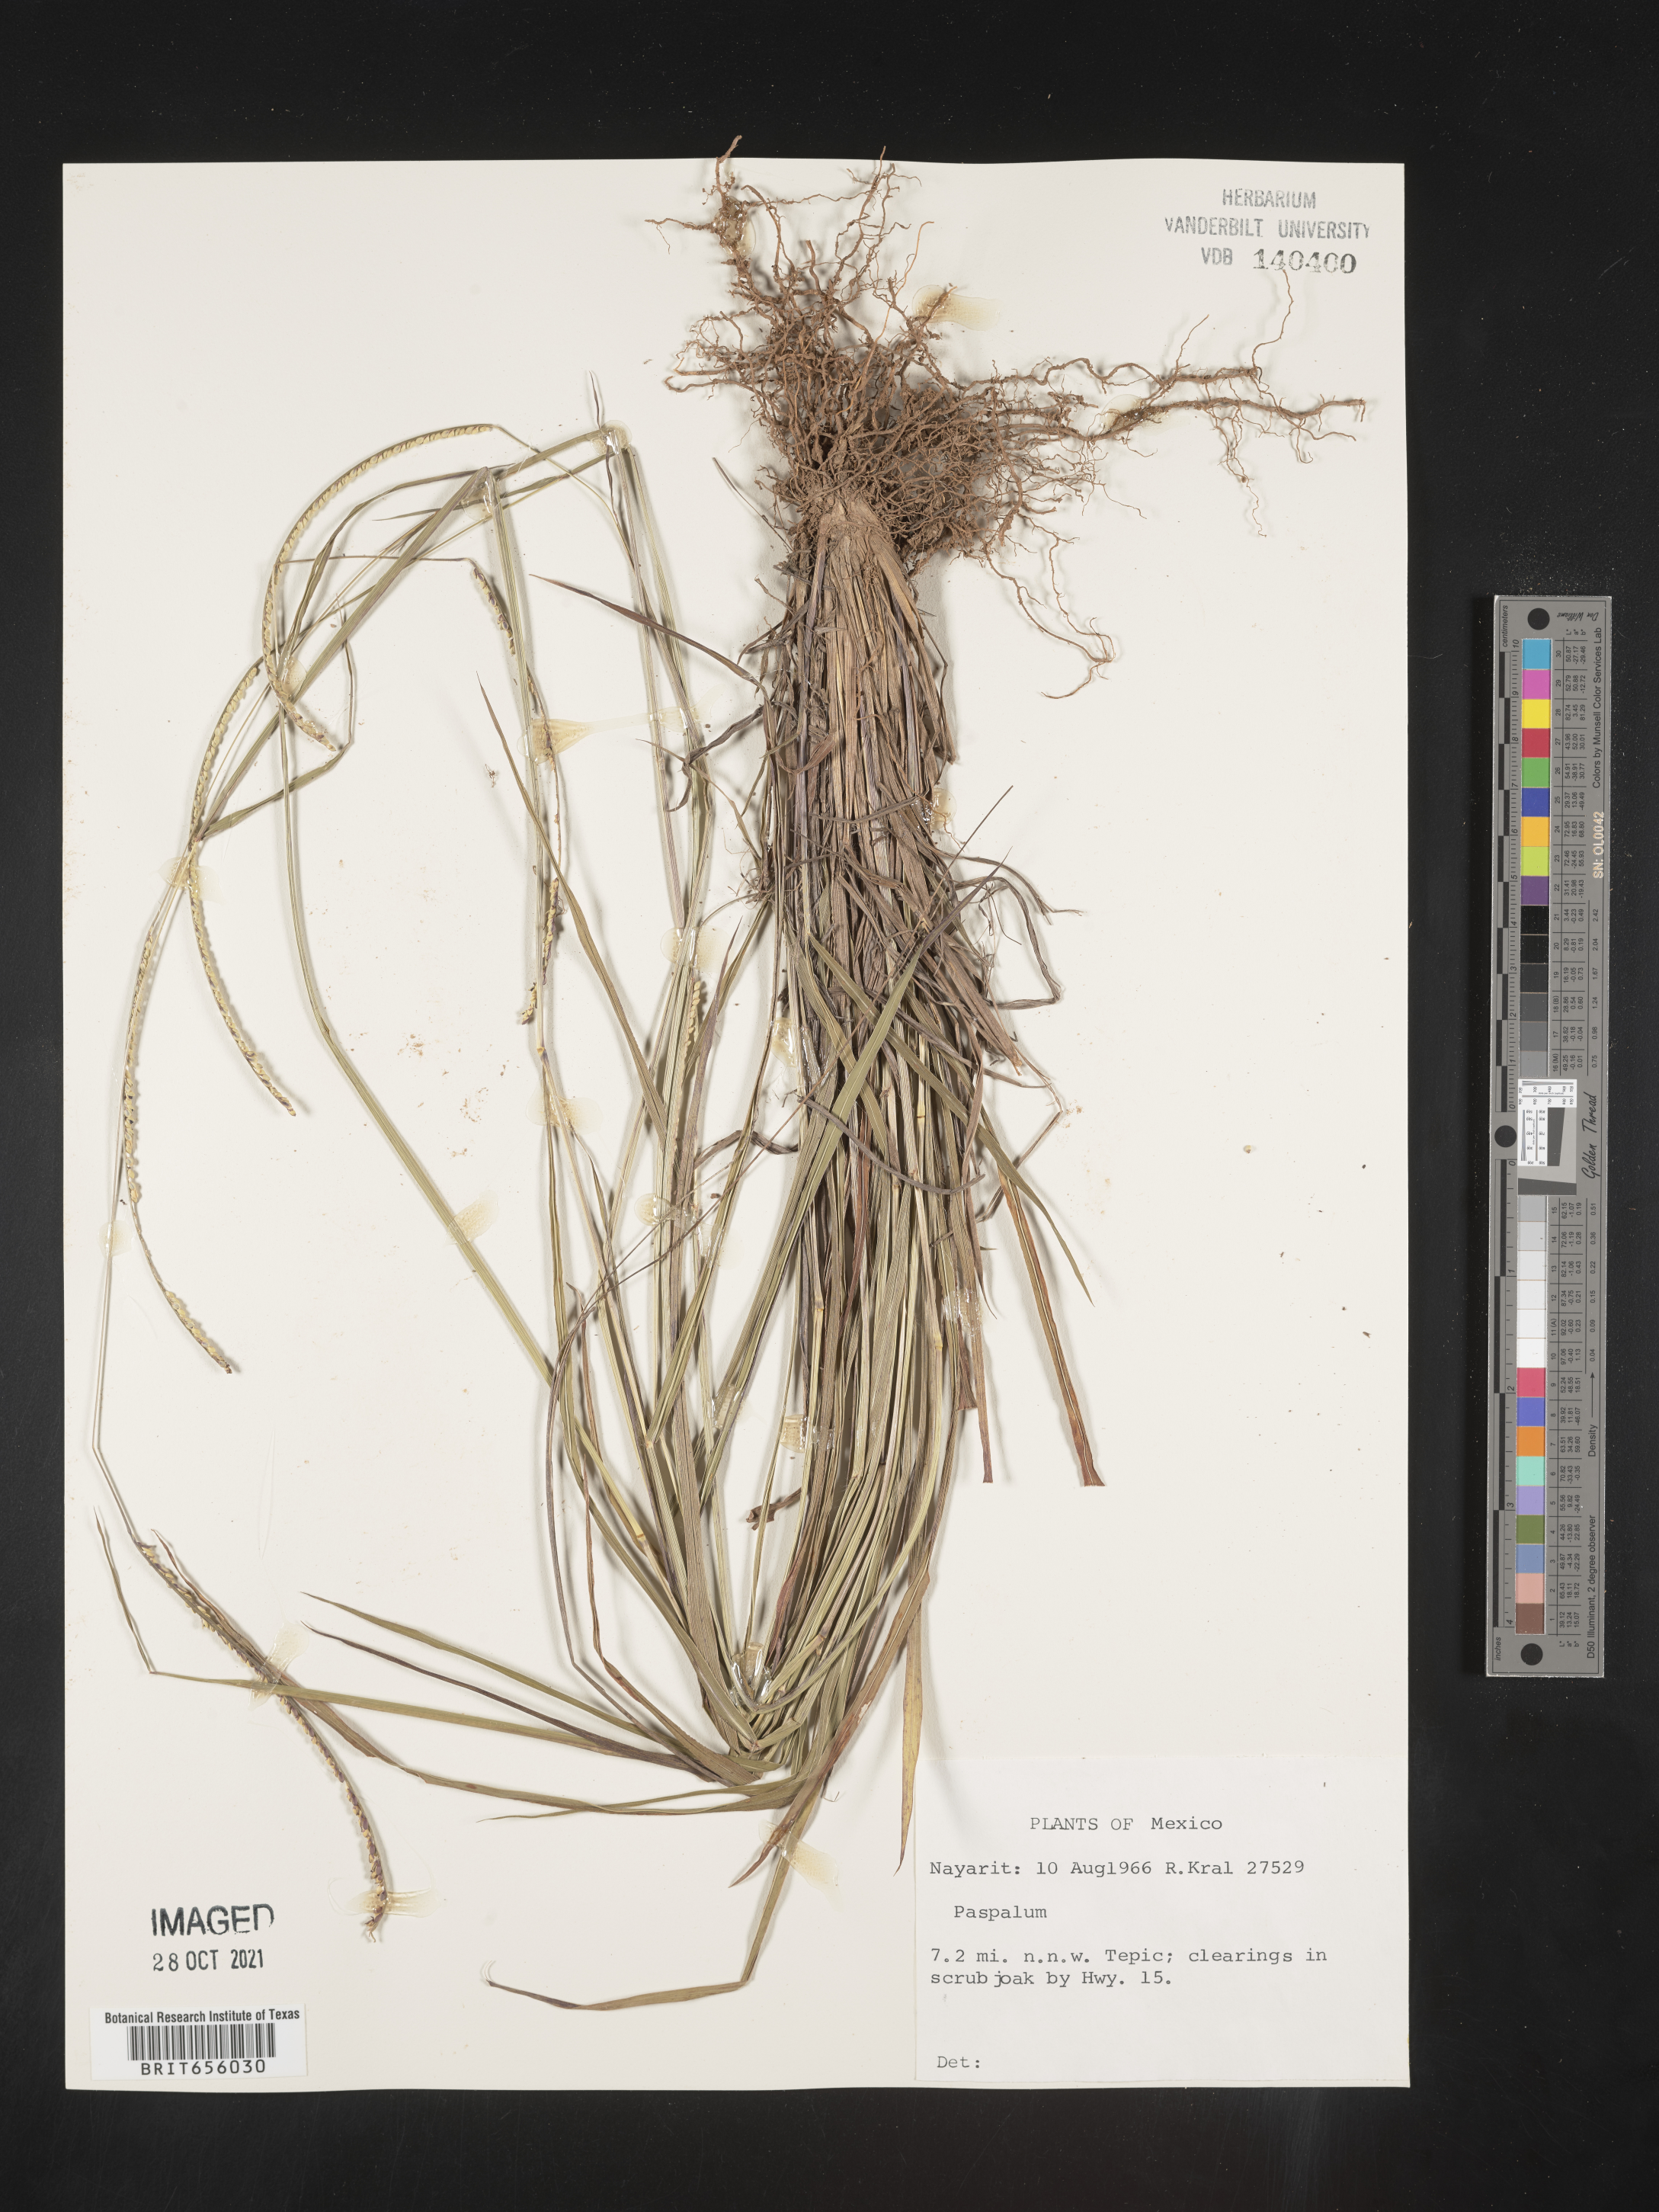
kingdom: Plantae
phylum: Tracheophyta
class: Liliopsida
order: Poales
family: Poaceae
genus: Paspalum
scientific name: Paspalum
